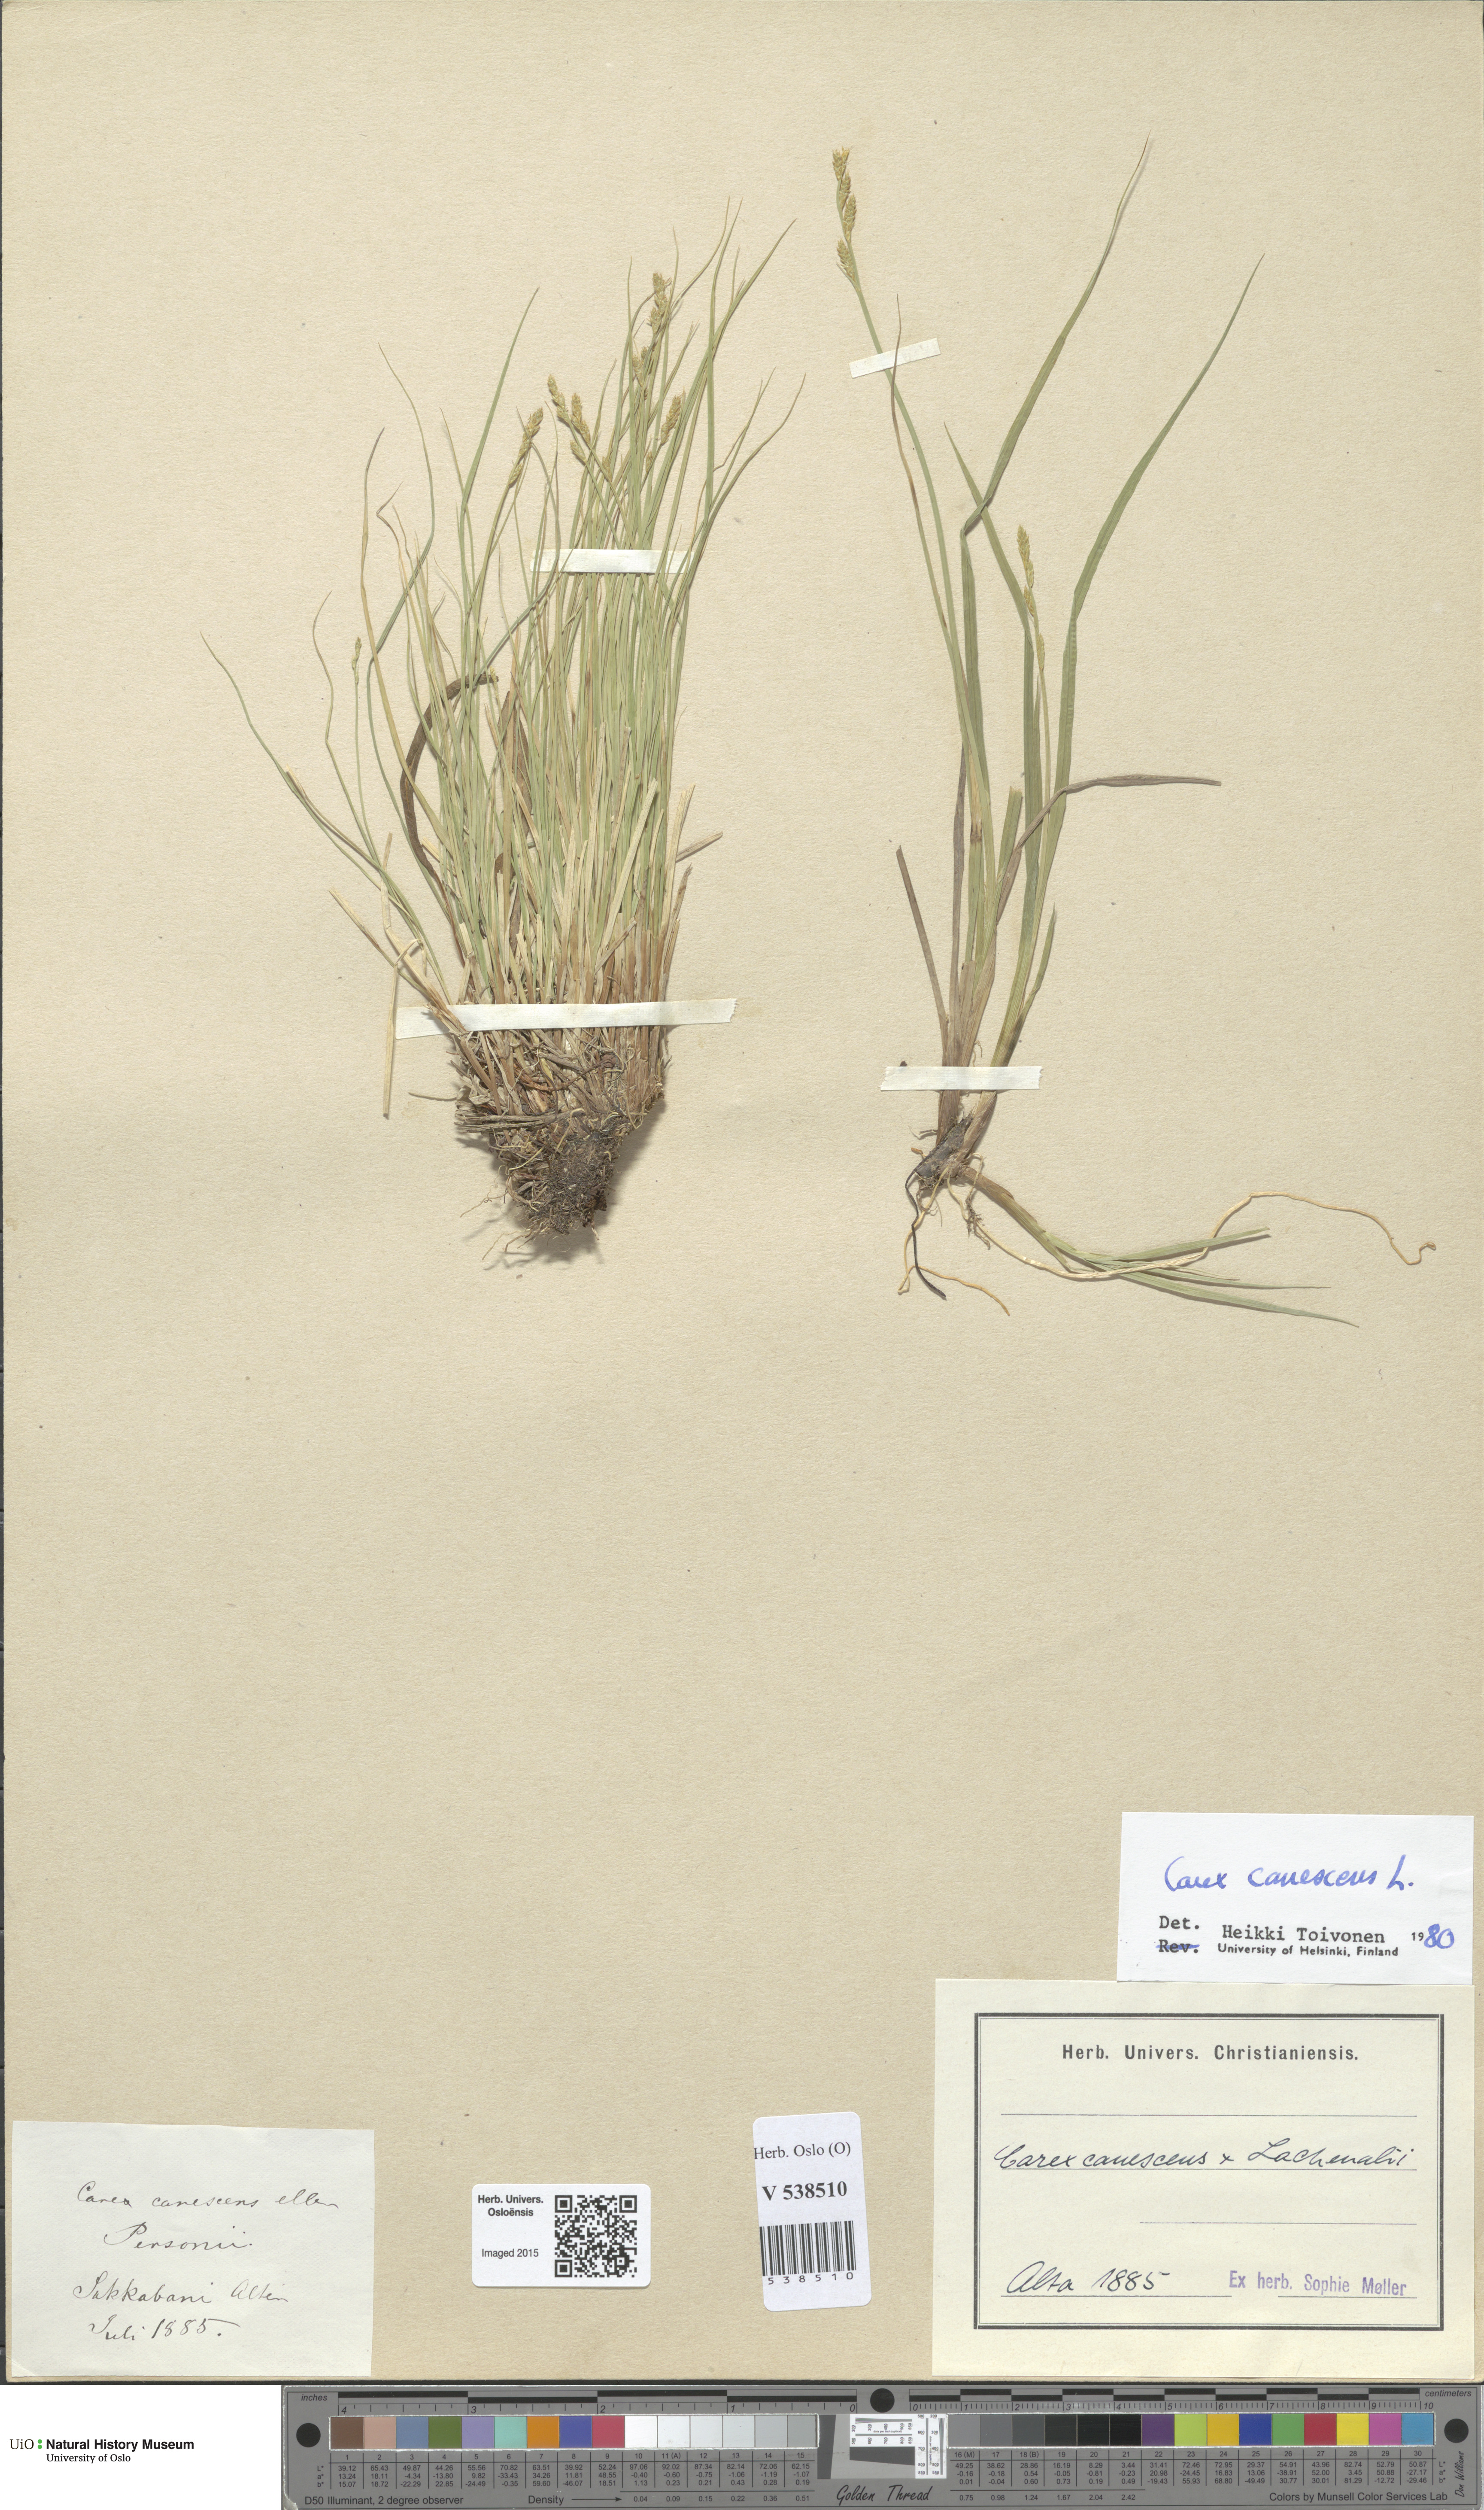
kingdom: Plantae
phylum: Tracheophyta
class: Liliopsida
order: Poales
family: Cyperaceae
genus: Carex
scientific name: Carex canescens
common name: White sedge
